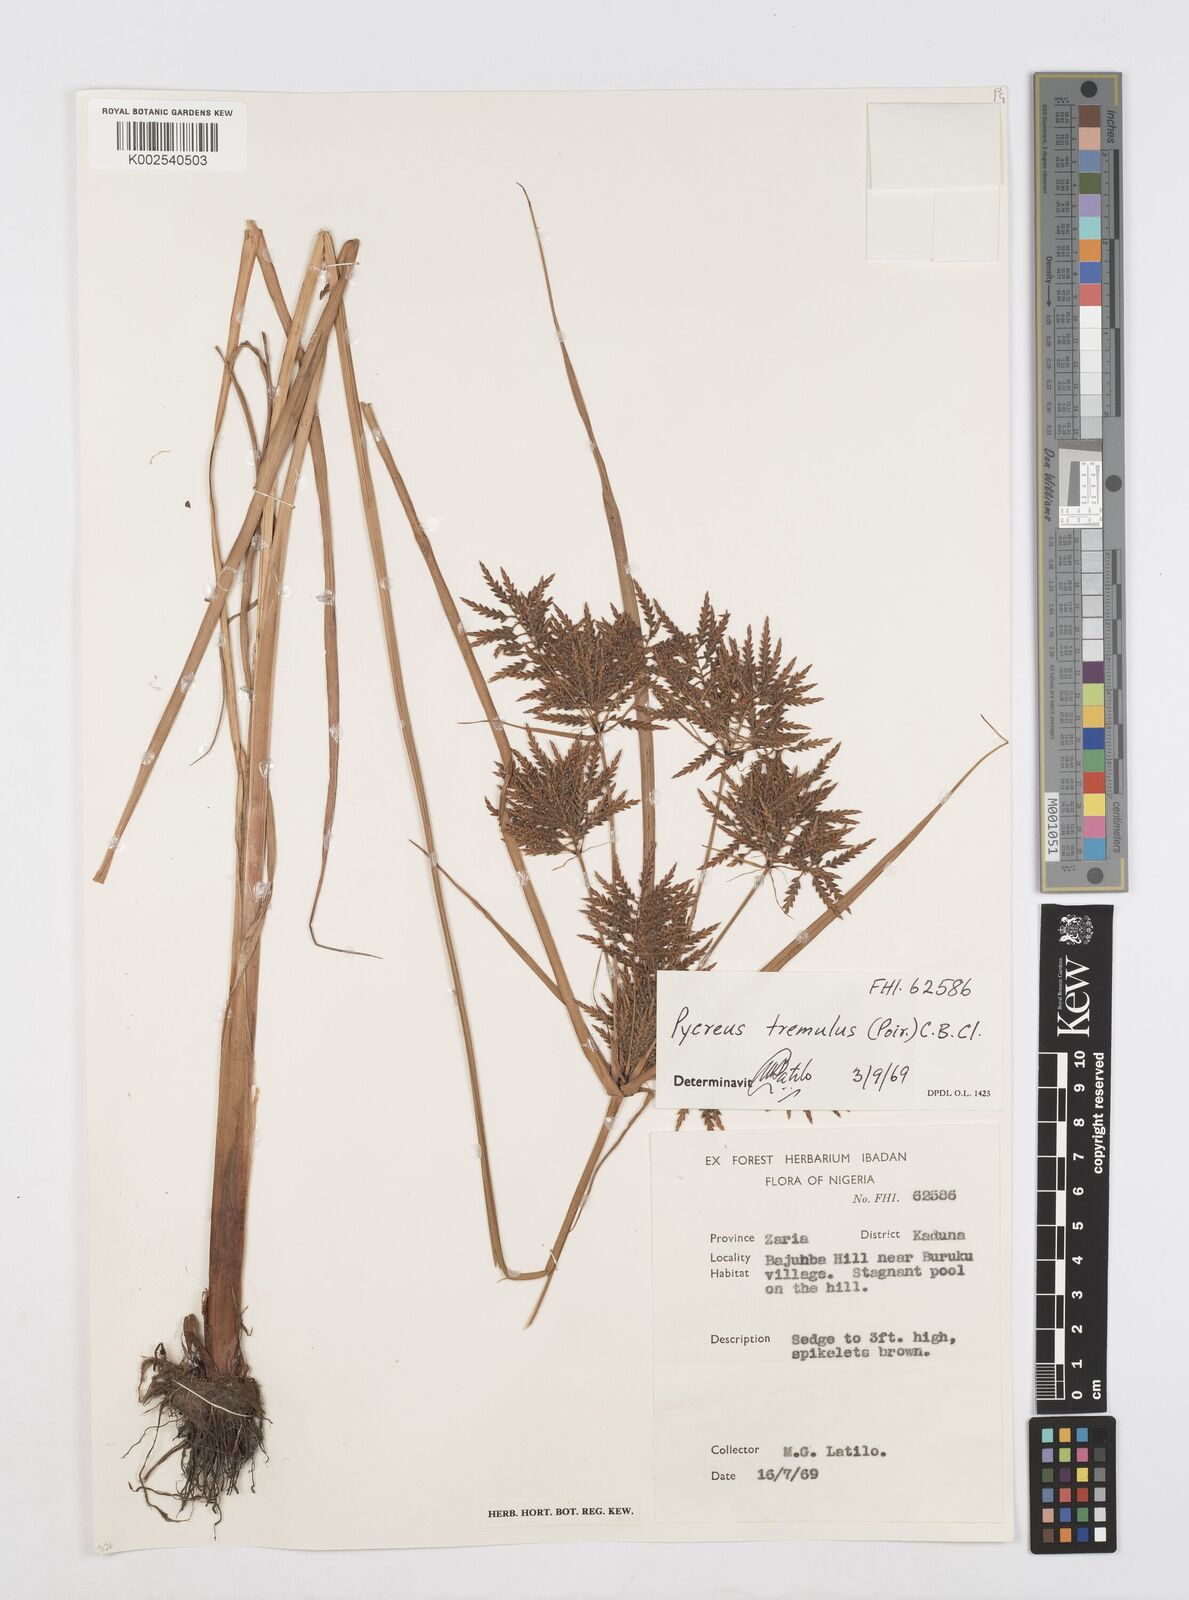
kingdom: Plantae
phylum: Tracheophyta
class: Liliopsida
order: Poales
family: Cyperaceae
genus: Cyperus
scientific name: Cyperus macrostachyos
